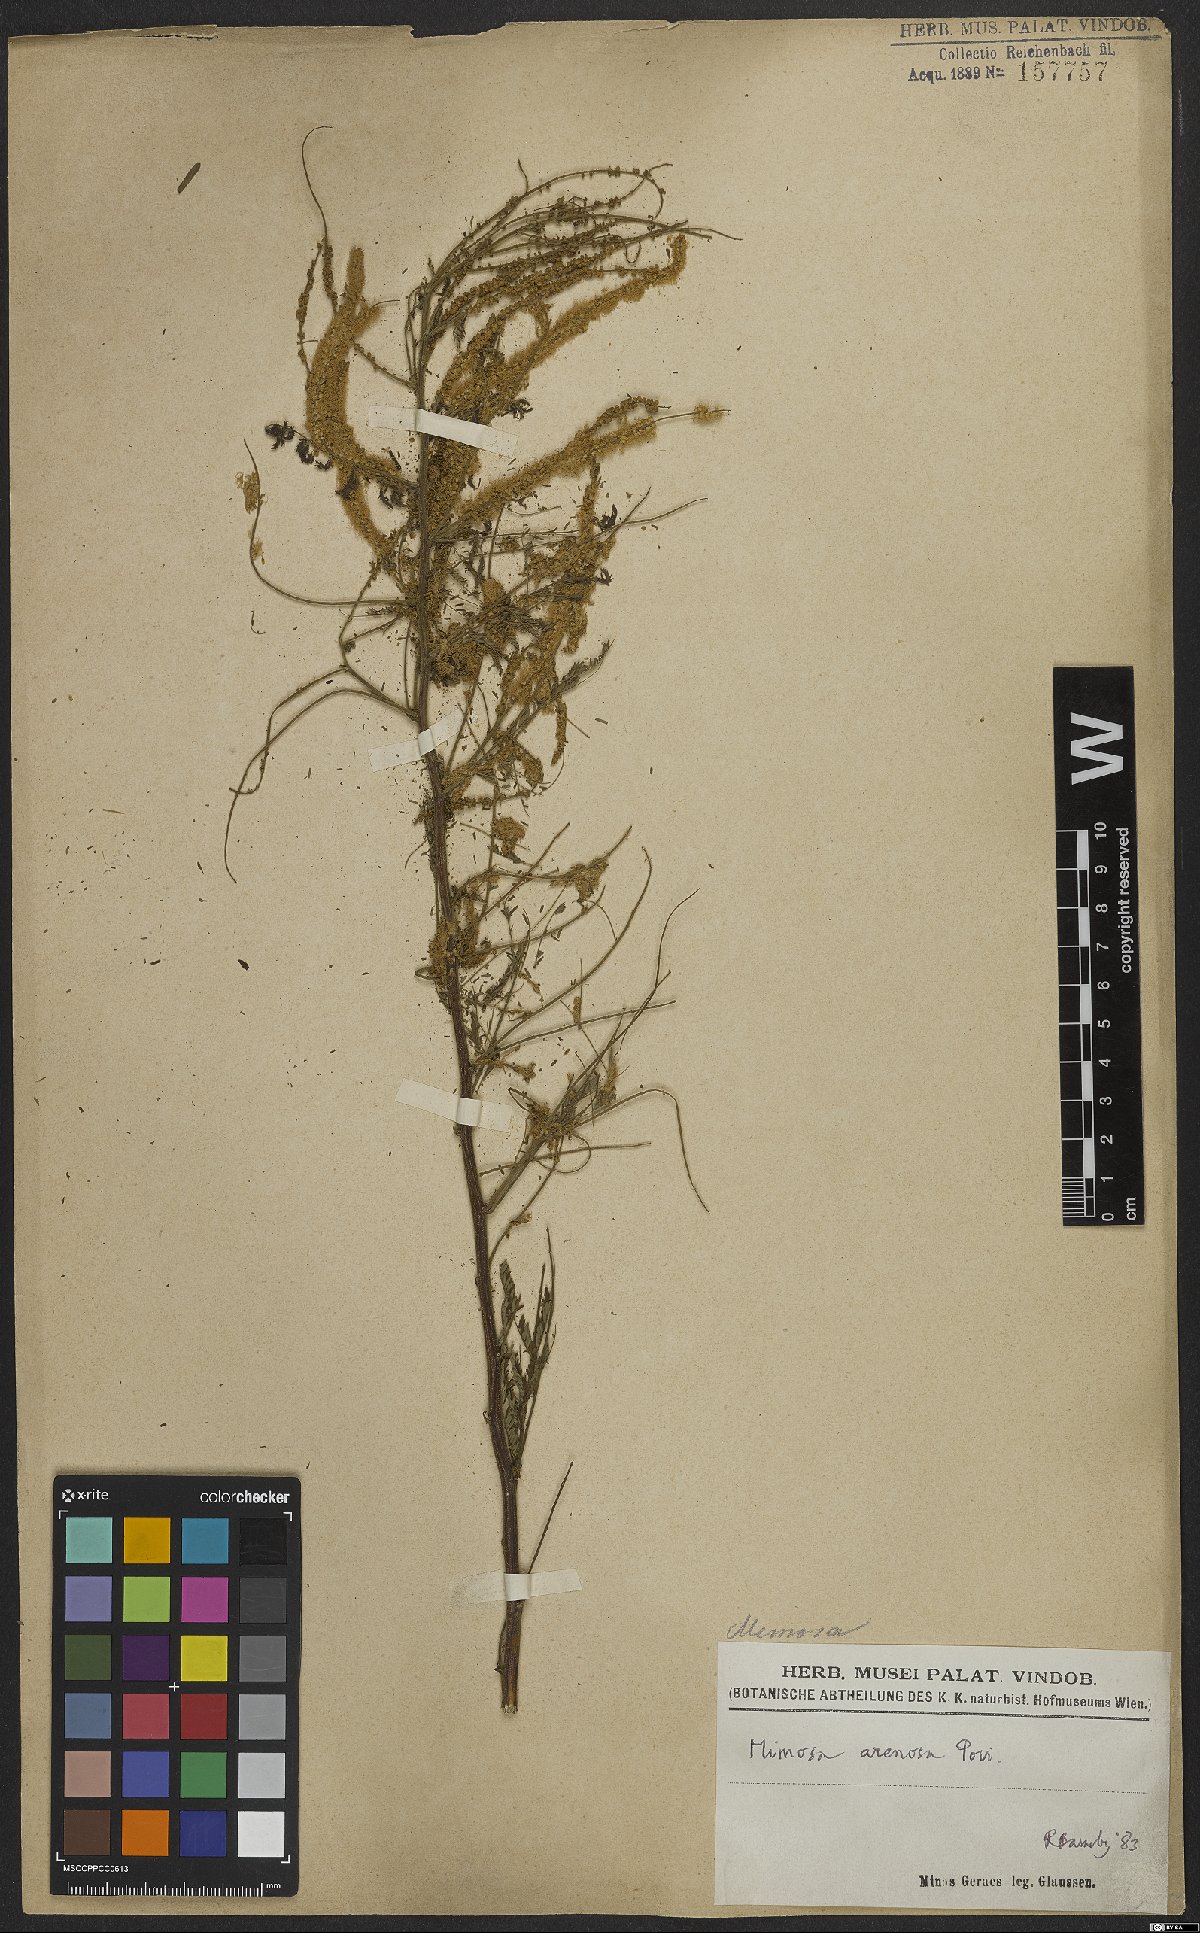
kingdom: Plantae
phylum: Tracheophyta
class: Magnoliopsida
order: Fabales
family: Fabaceae
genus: Mimosa
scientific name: Mimosa arenosa
